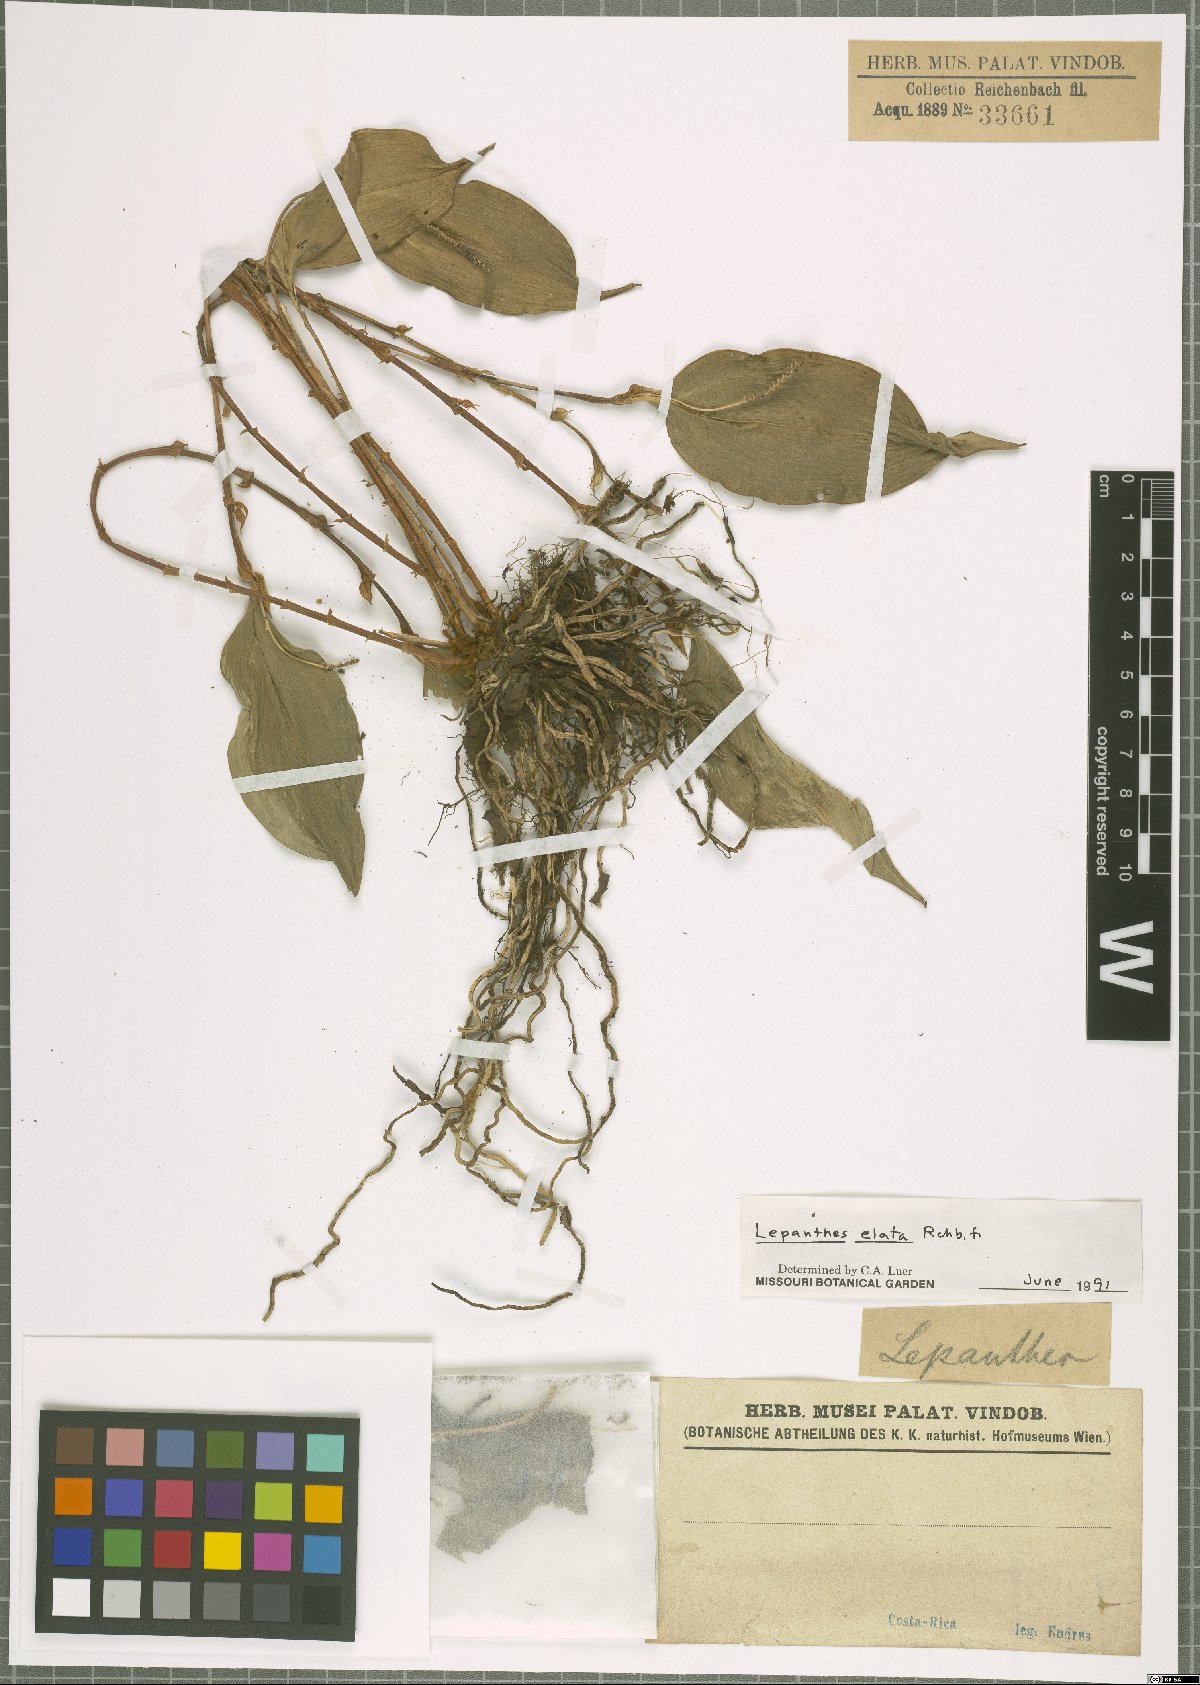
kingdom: Plantae
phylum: Tracheophyta
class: Liliopsida
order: Asparagales
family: Orchidaceae
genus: Lepanthes
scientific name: Lepanthes elata
